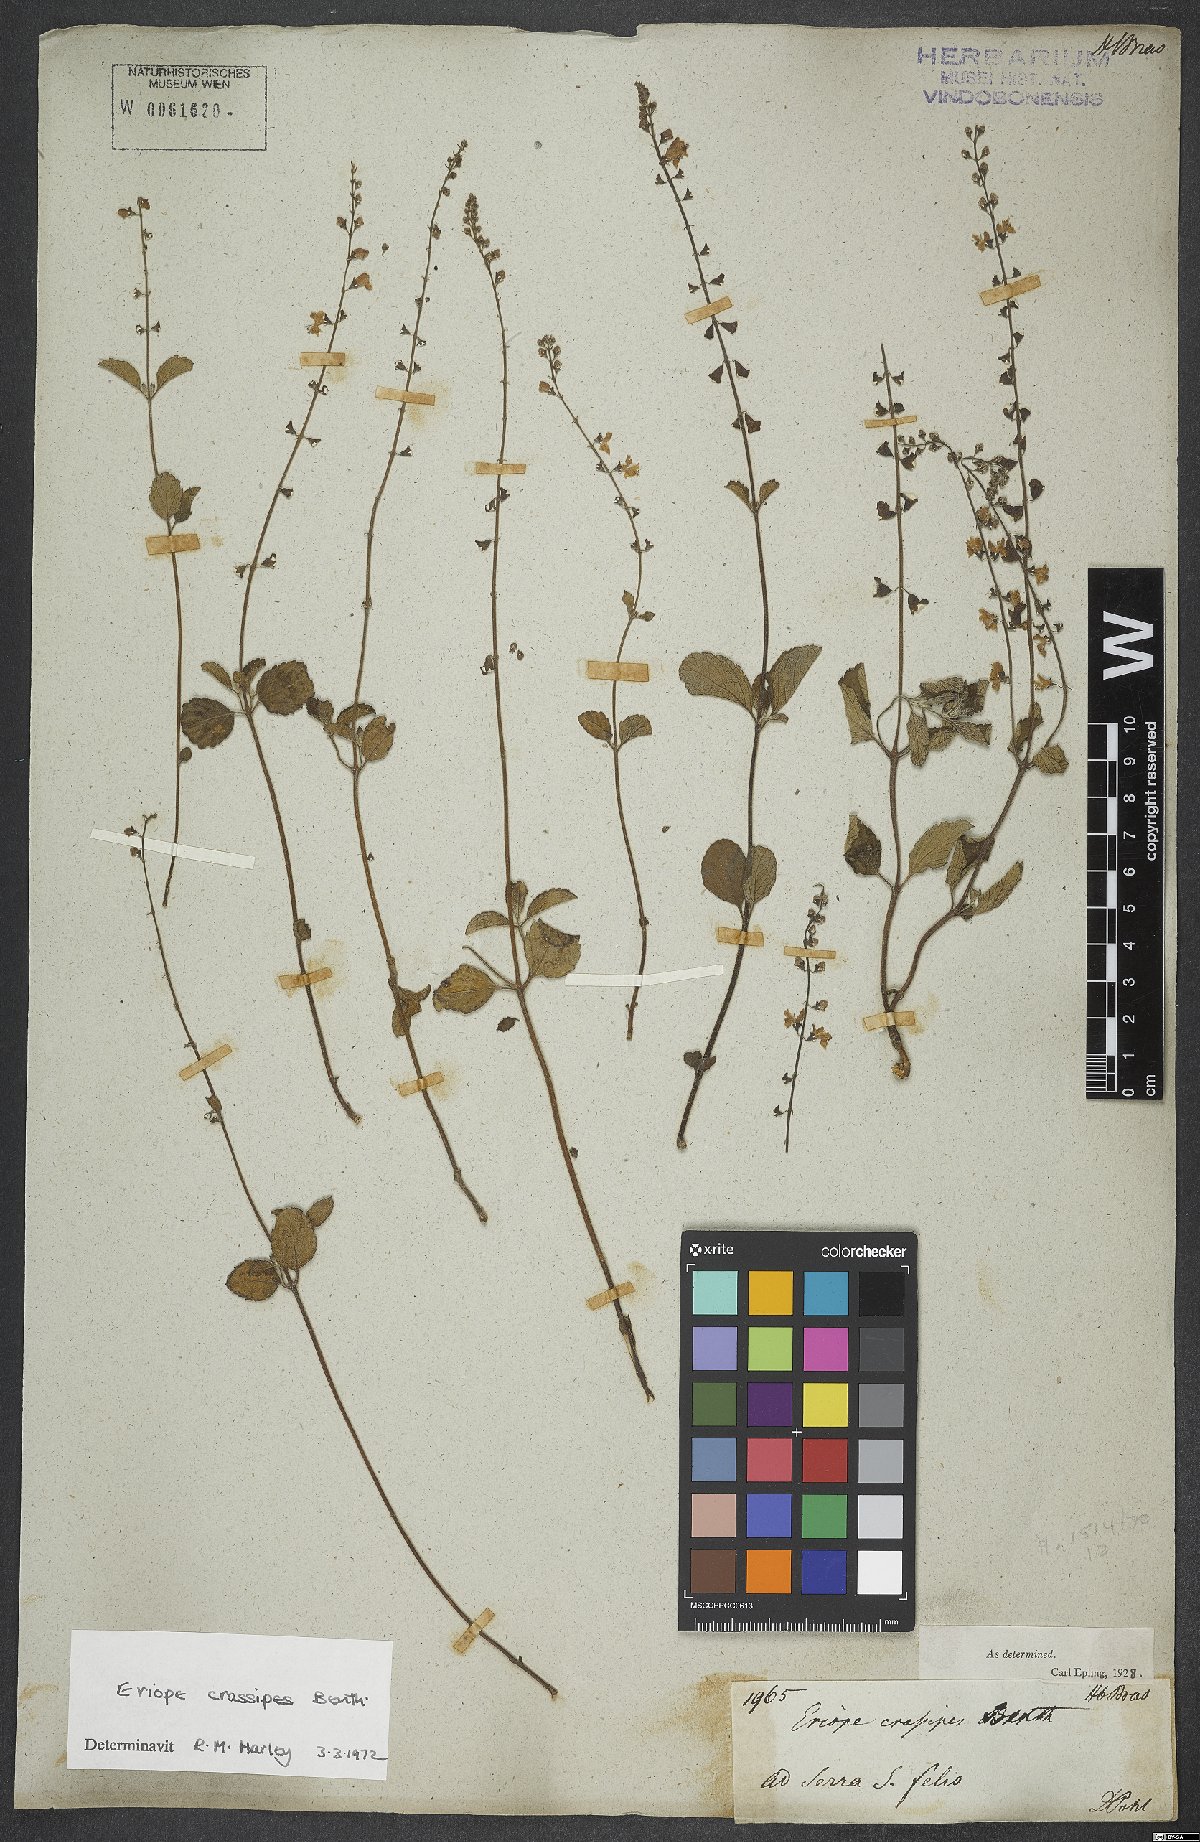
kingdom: Plantae
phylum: Tracheophyta
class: Magnoliopsida
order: Lamiales
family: Lamiaceae
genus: Eriope
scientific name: Eriope crassipes
